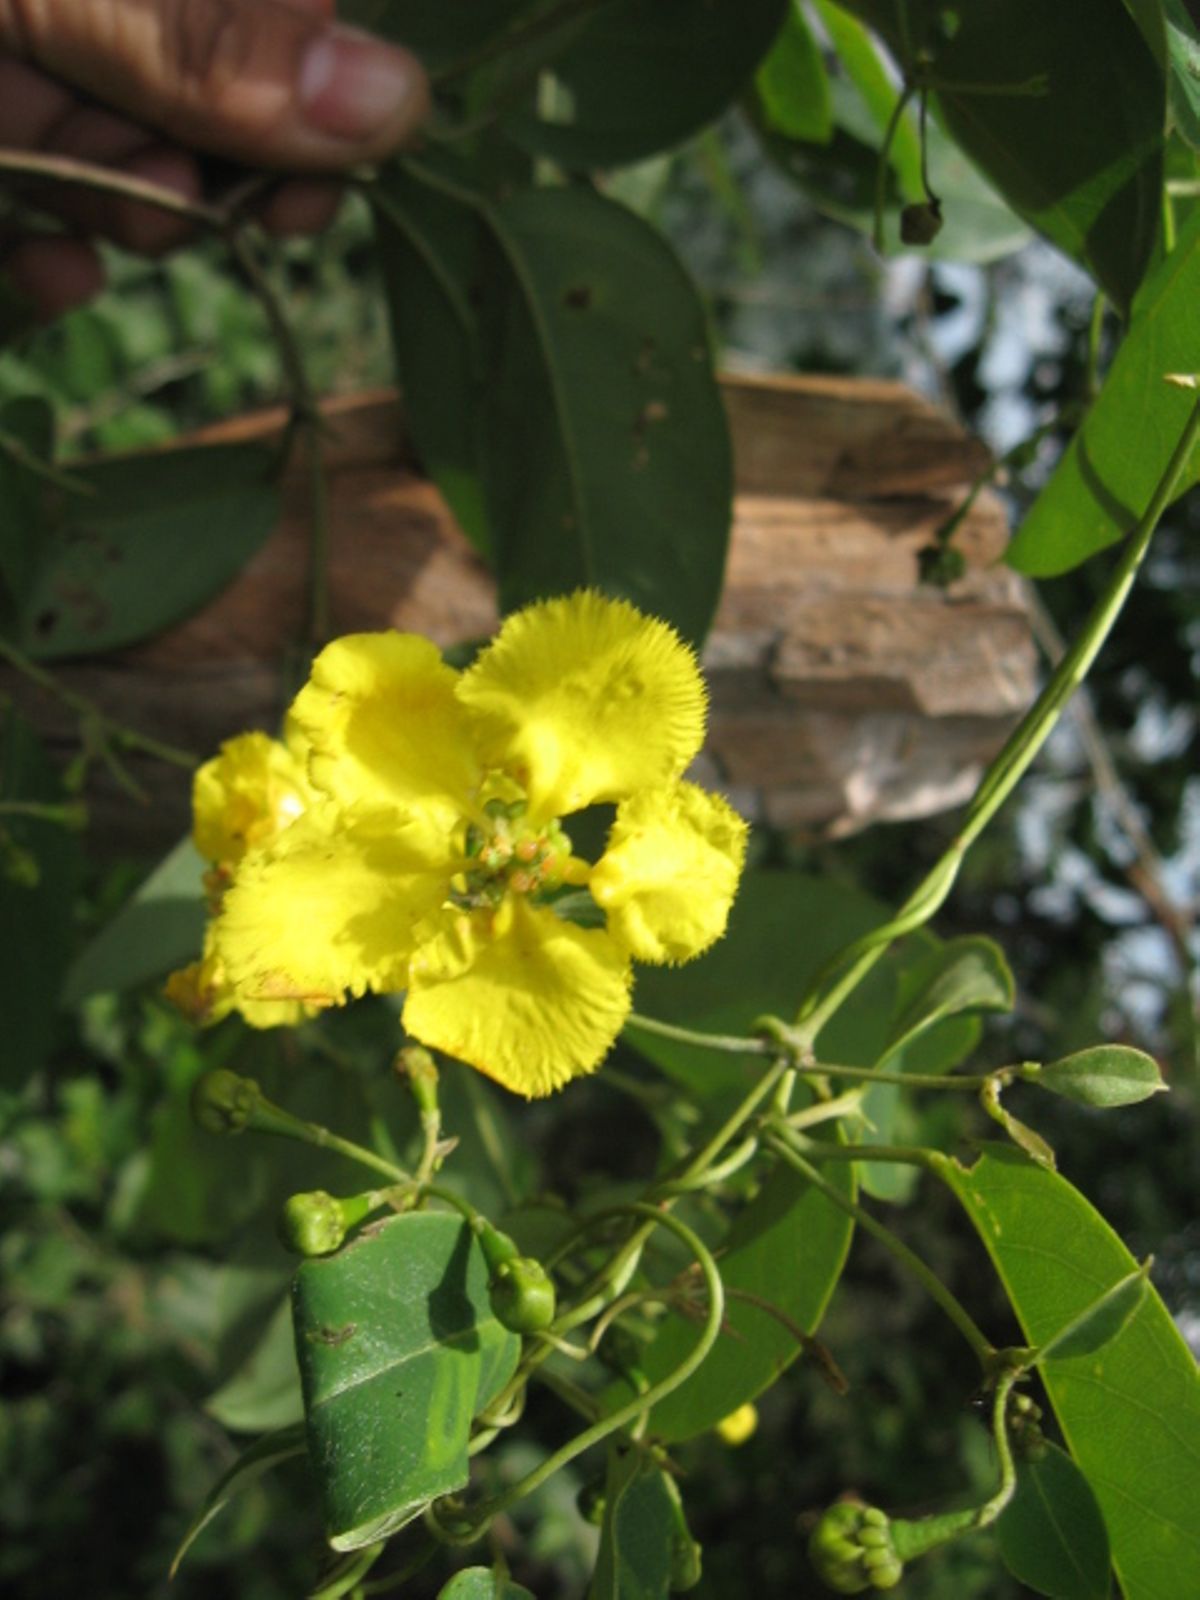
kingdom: Plantae
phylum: Tracheophyta
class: Magnoliopsida
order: Malpighiales
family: Malpighiaceae
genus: Stigmaphyllon
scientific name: Stigmaphyllon ellipticum
